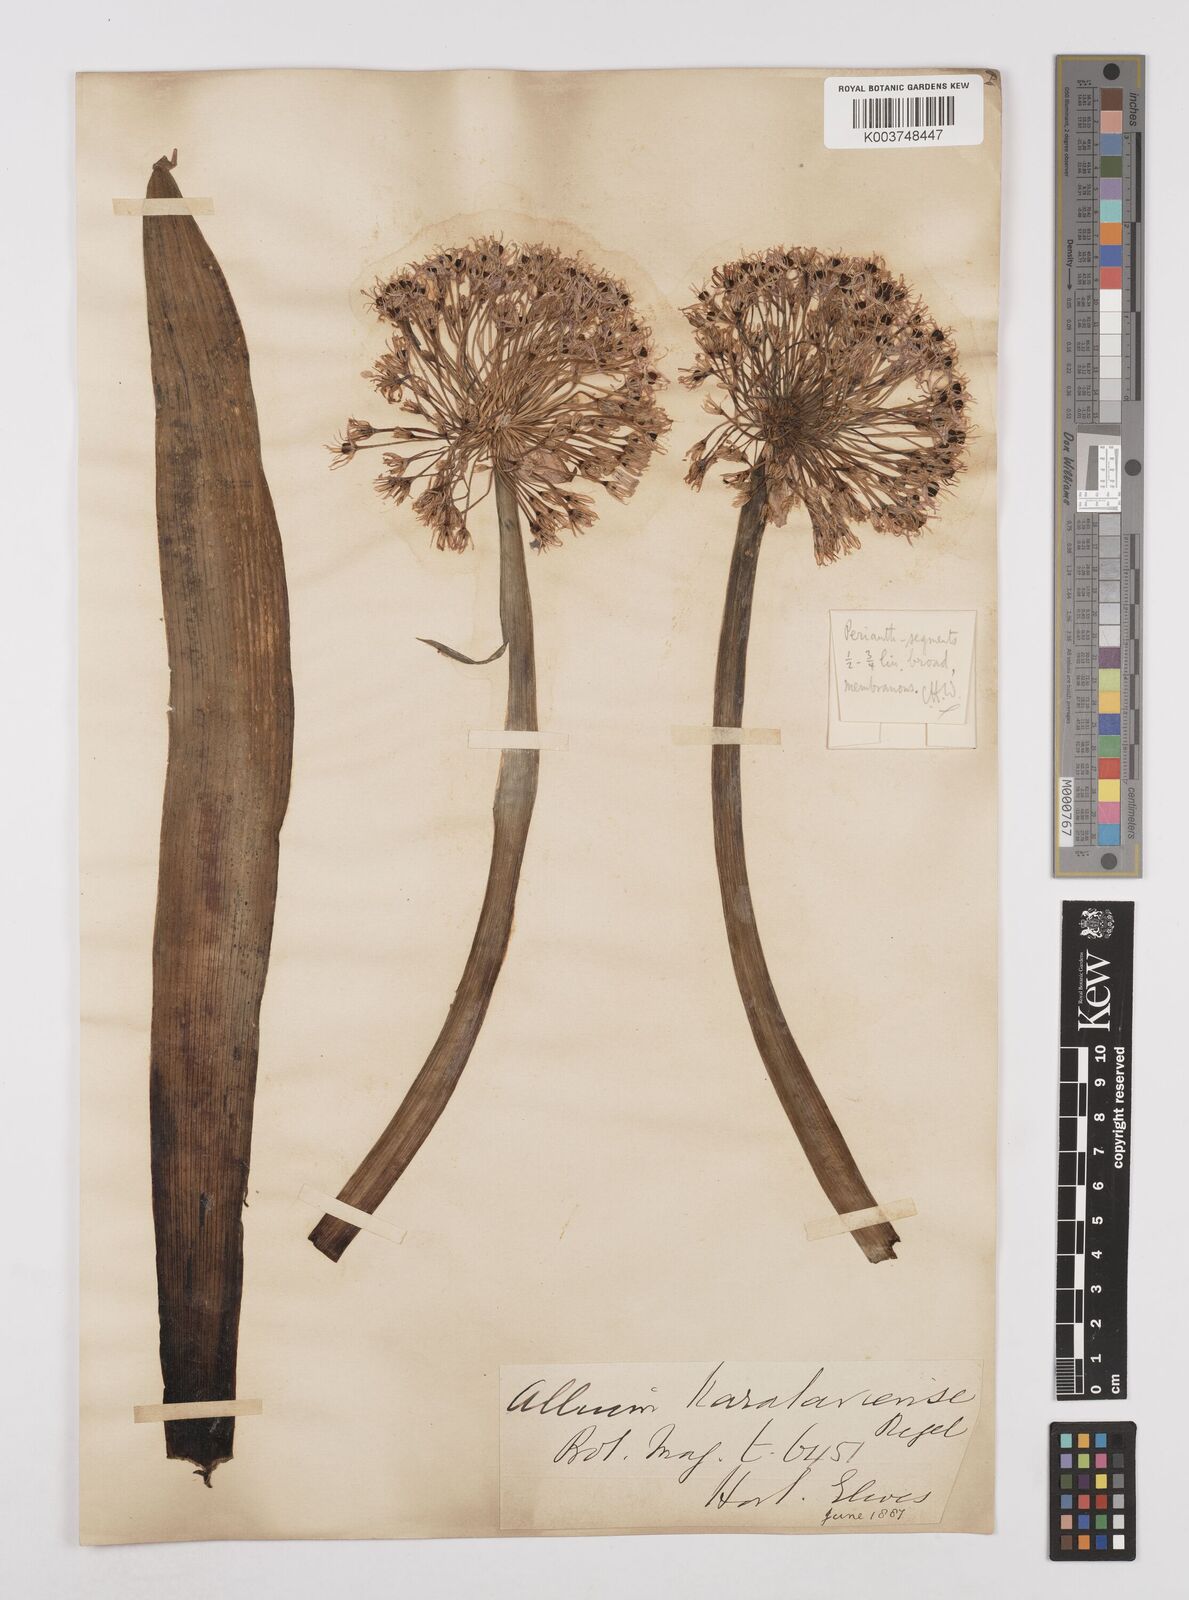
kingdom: Plantae
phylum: Tracheophyta
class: Liliopsida
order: Asparagales
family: Amaryllidaceae
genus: Allium
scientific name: Allium karataviense
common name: Turkestan onion
